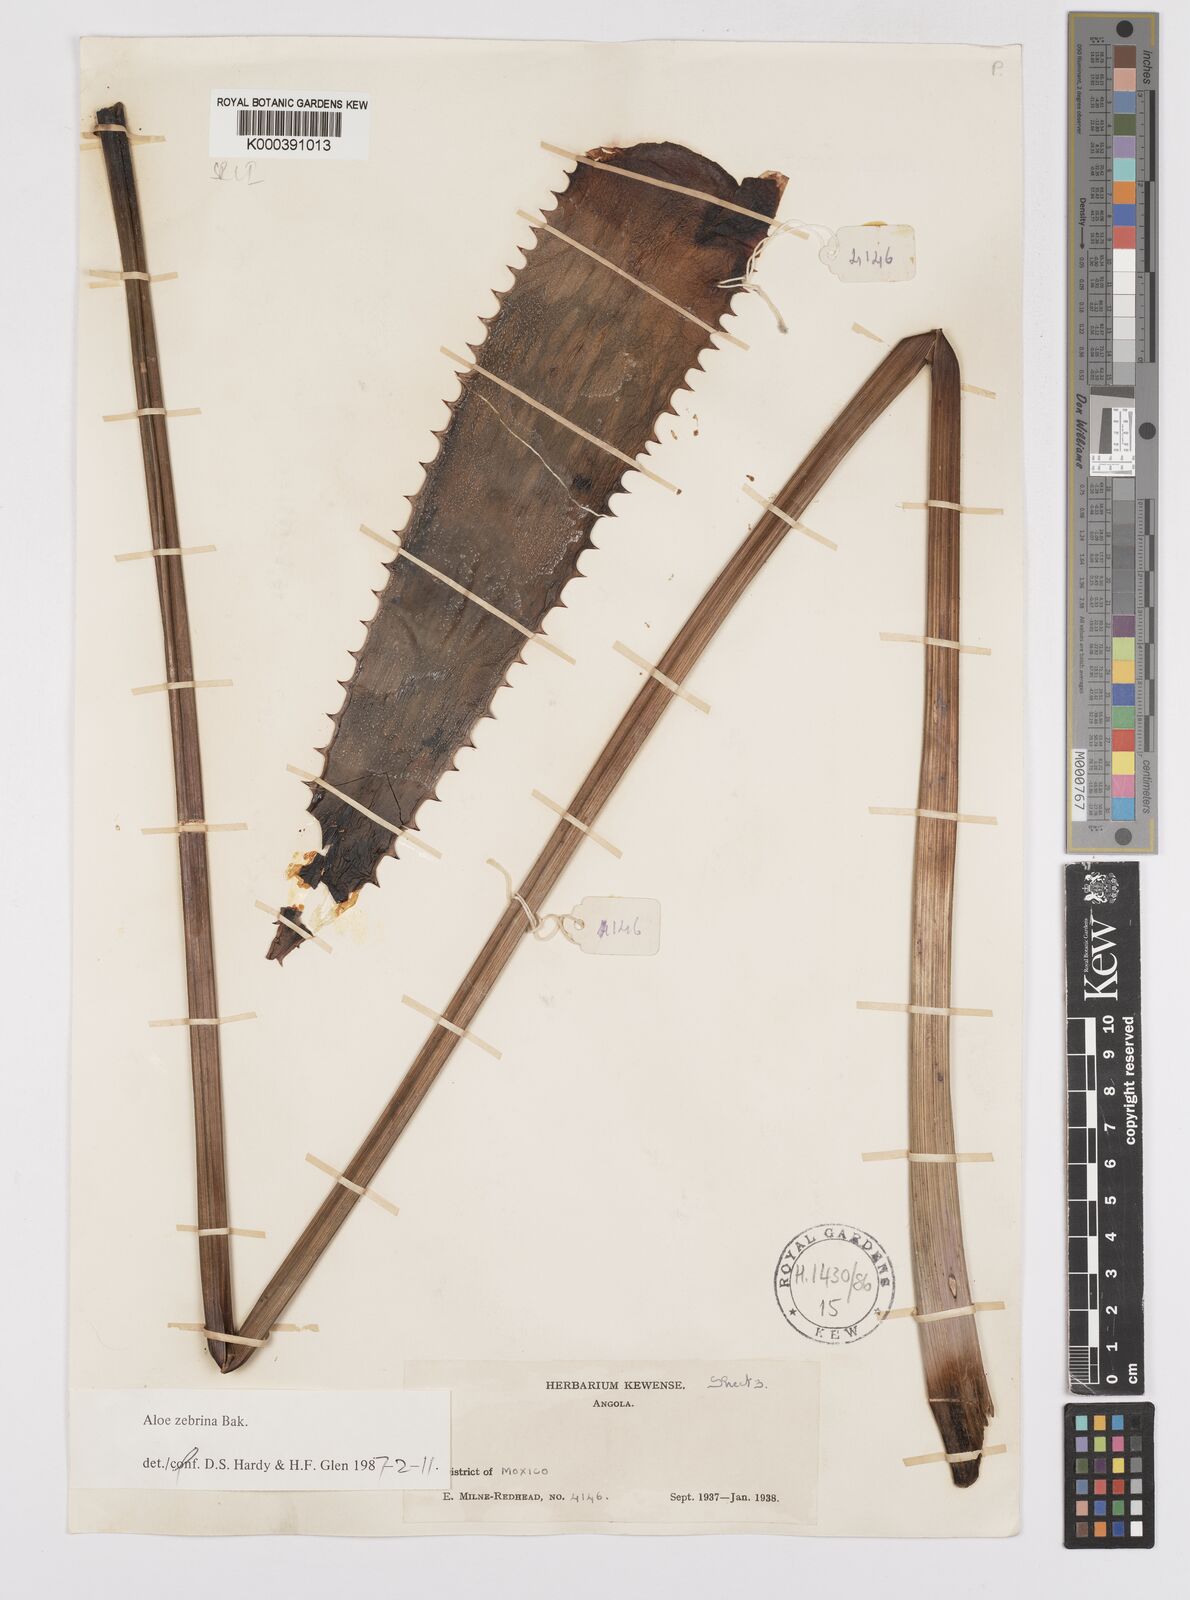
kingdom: Plantae
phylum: Tracheophyta
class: Liliopsida
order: Asparagales
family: Asphodelaceae
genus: Aloe
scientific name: Aloe zebrina
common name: Zebra-leaf aloe
